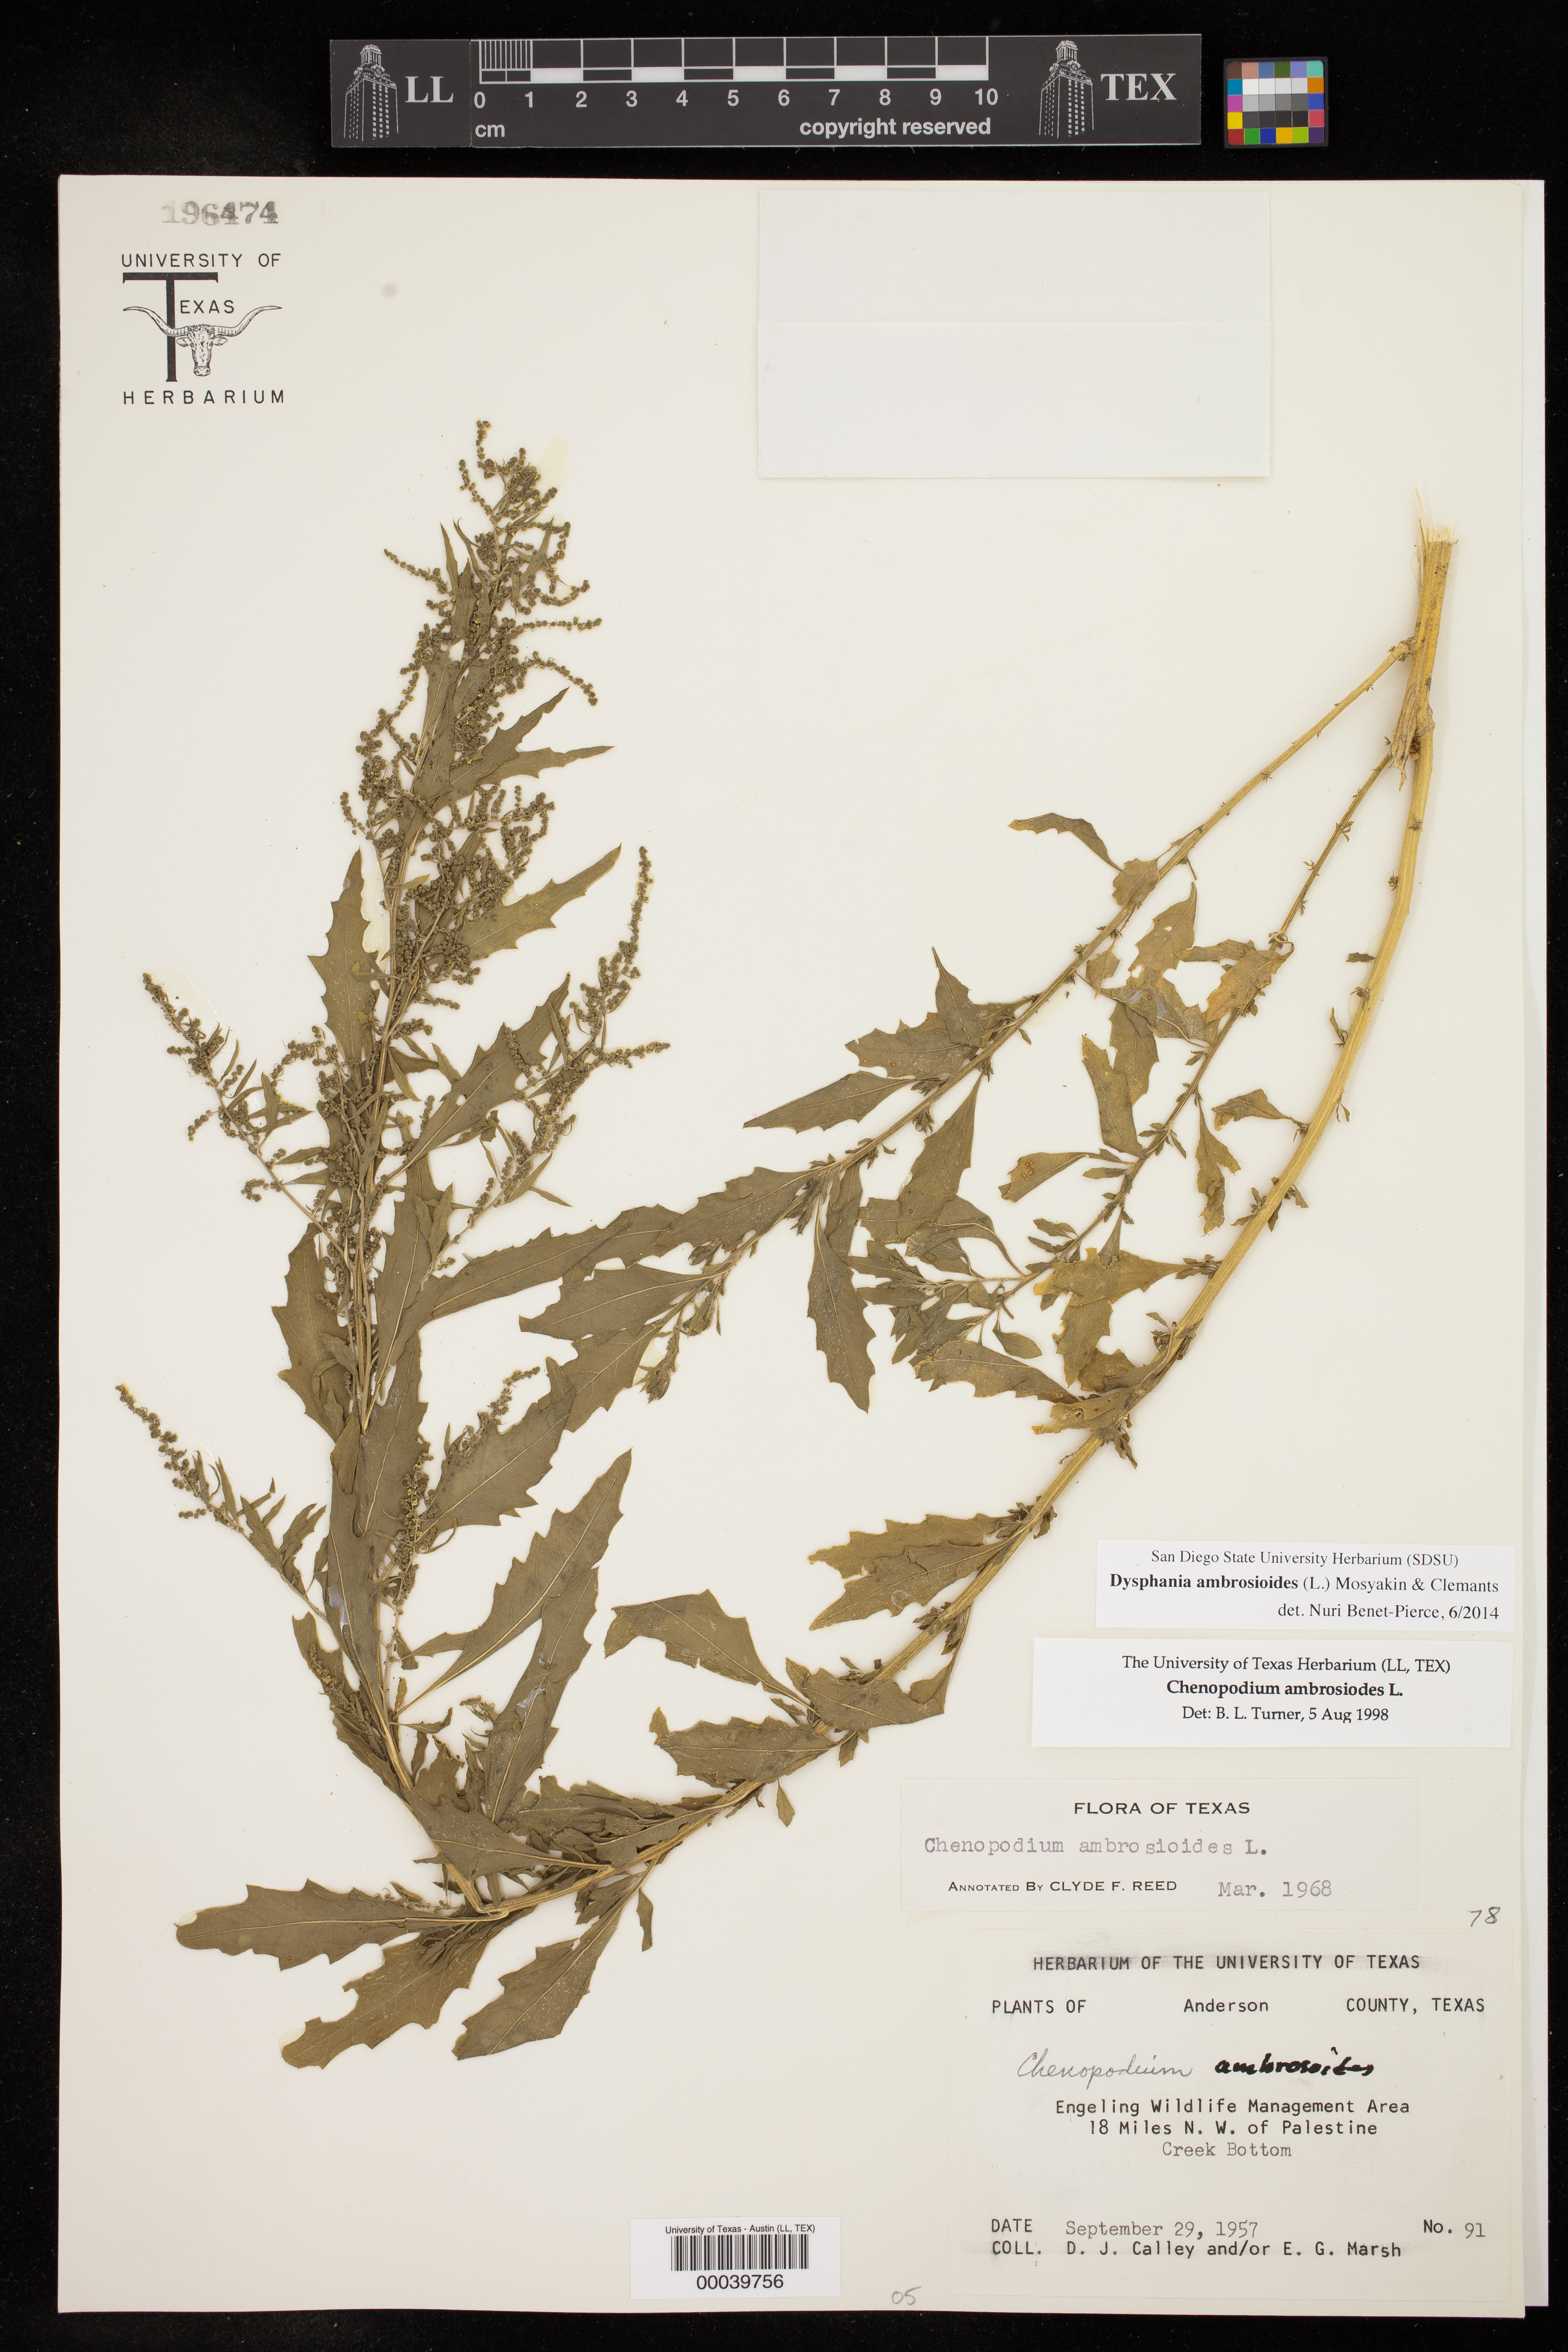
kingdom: Plantae
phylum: Tracheophyta
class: Magnoliopsida
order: Caryophyllales
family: Amaranthaceae
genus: Dysphania
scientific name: Dysphania ambrosioides
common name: Wormseed
